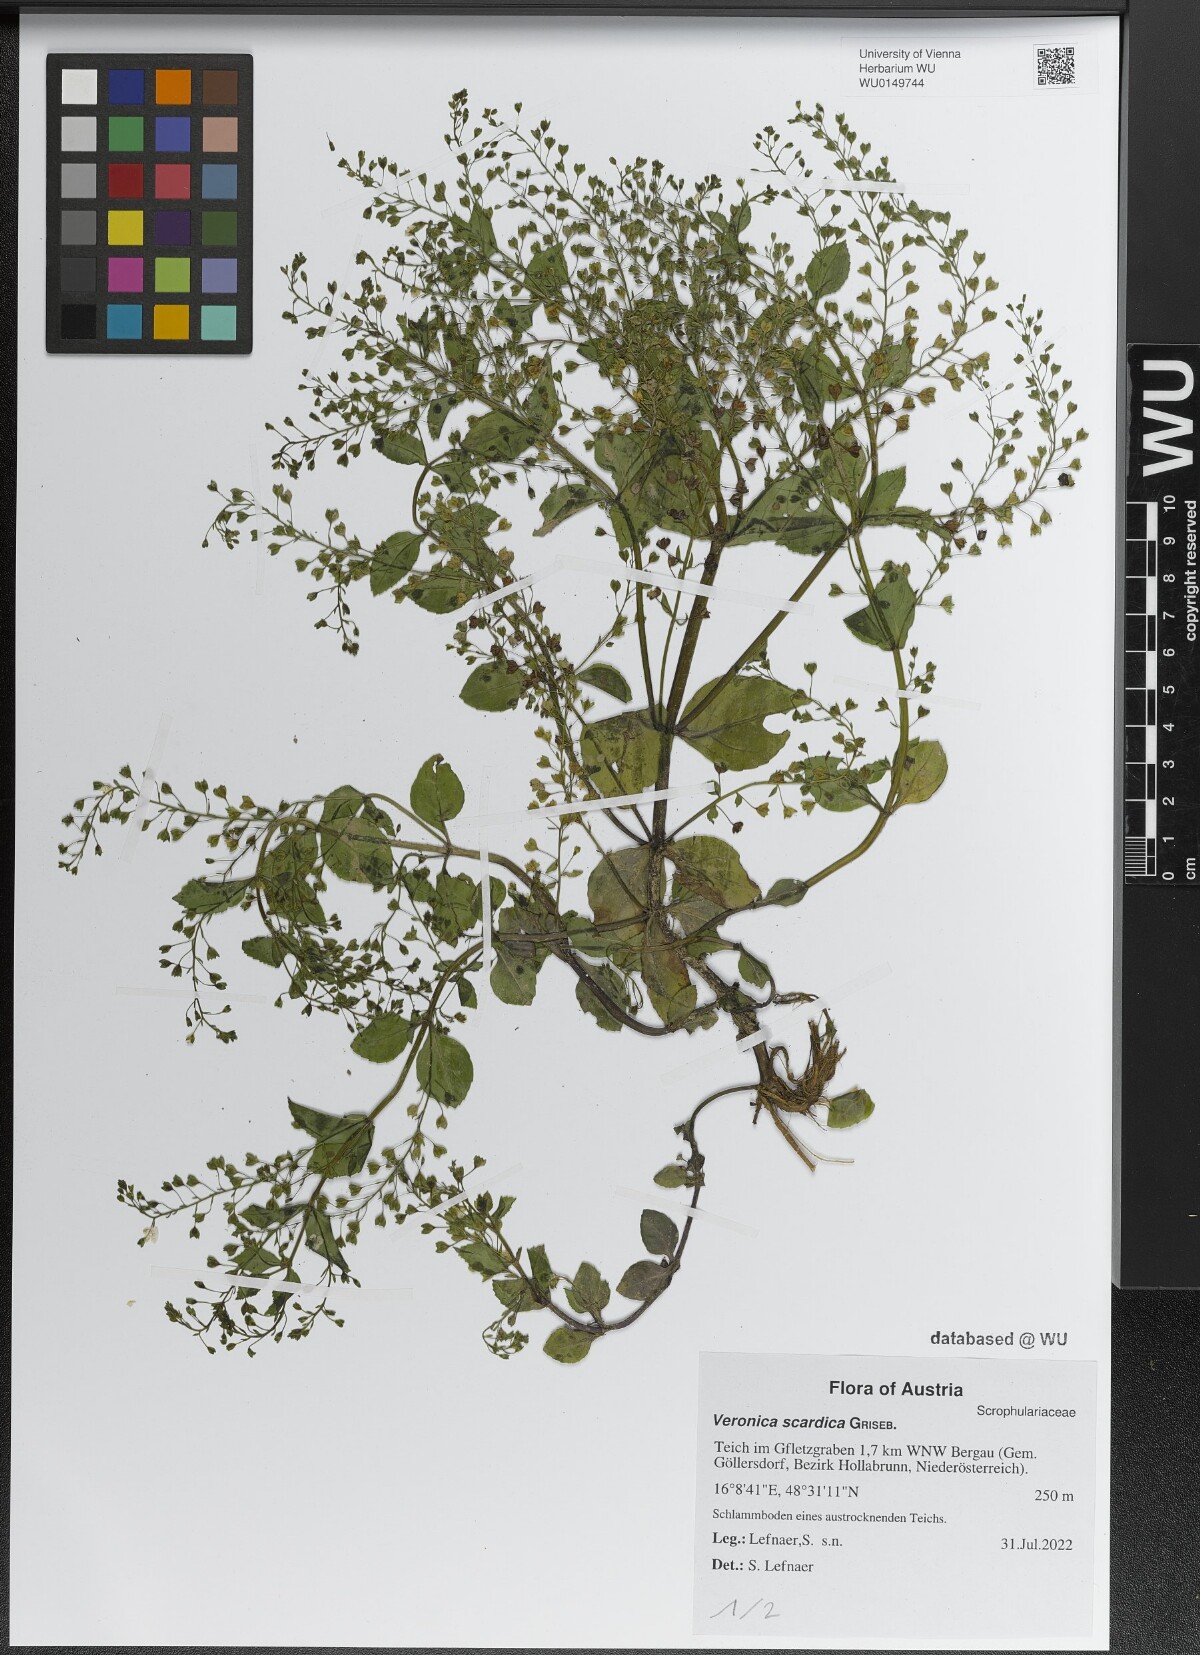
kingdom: Plantae
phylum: Tracheophyta
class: Magnoliopsida
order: Lamiales
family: Plantaginaceae
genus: Veronica
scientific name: Veronica scardica
